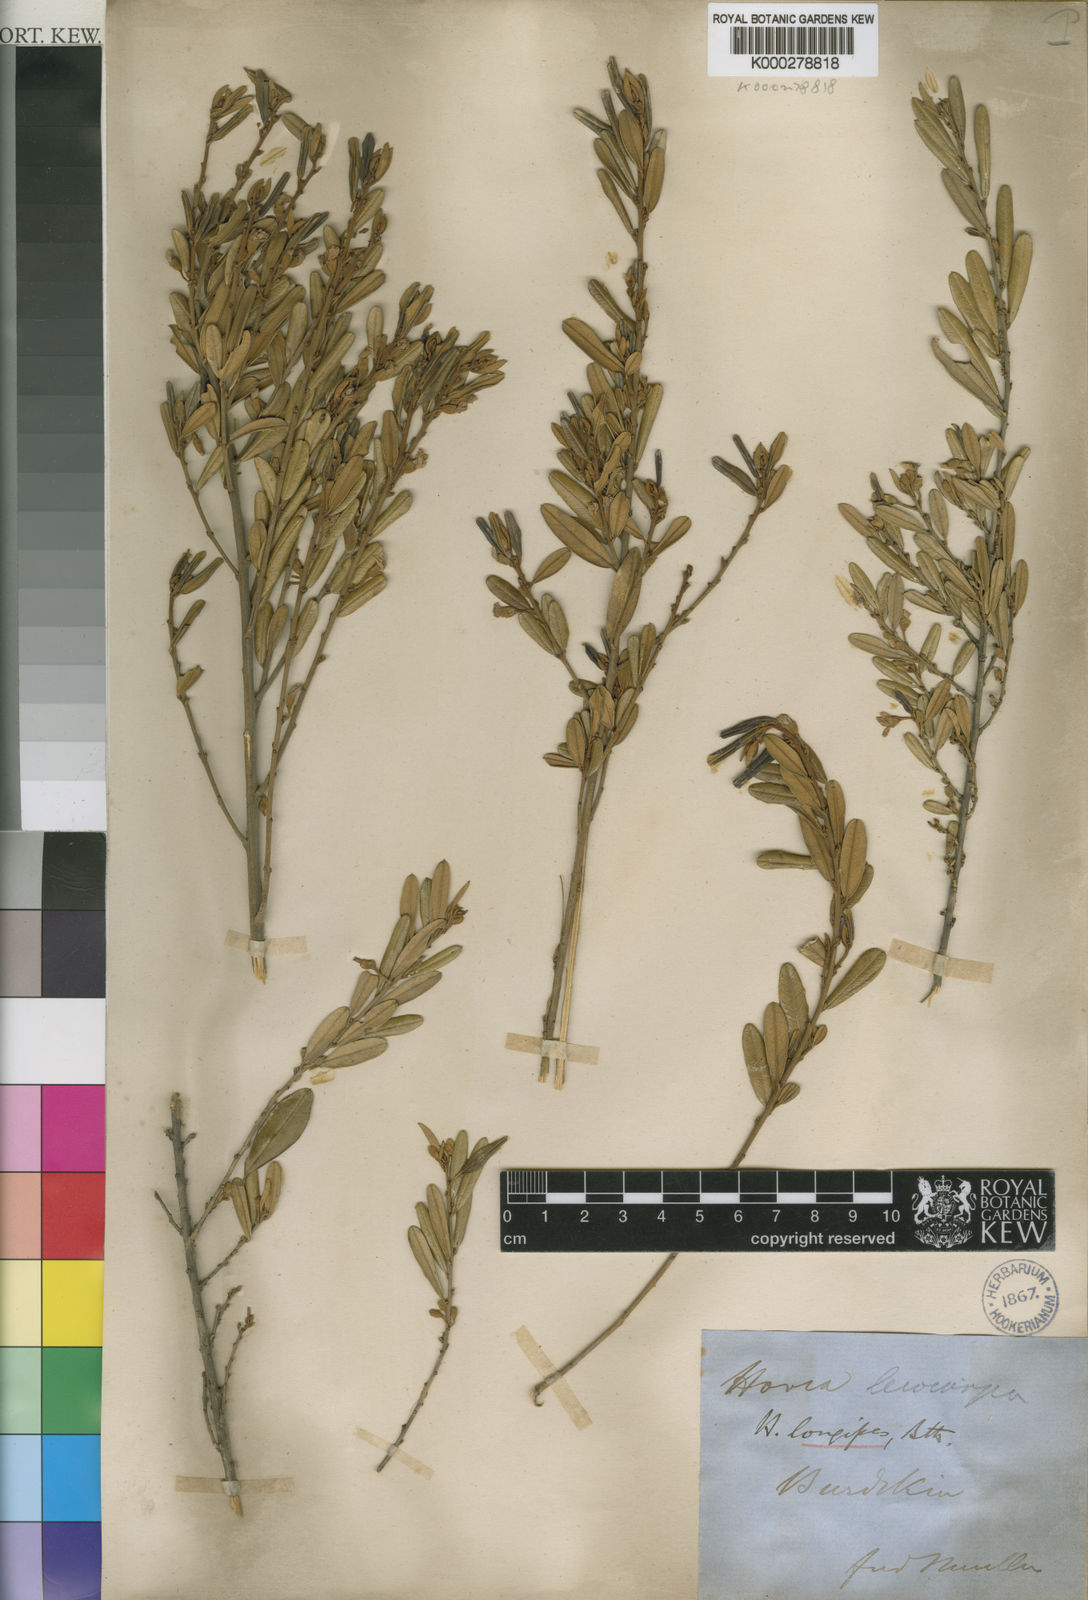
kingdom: Plantae
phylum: Tracheophyta
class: Magnoliopsida
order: Fabales
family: Fabaceae
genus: Hovea
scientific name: Hovea longipes
